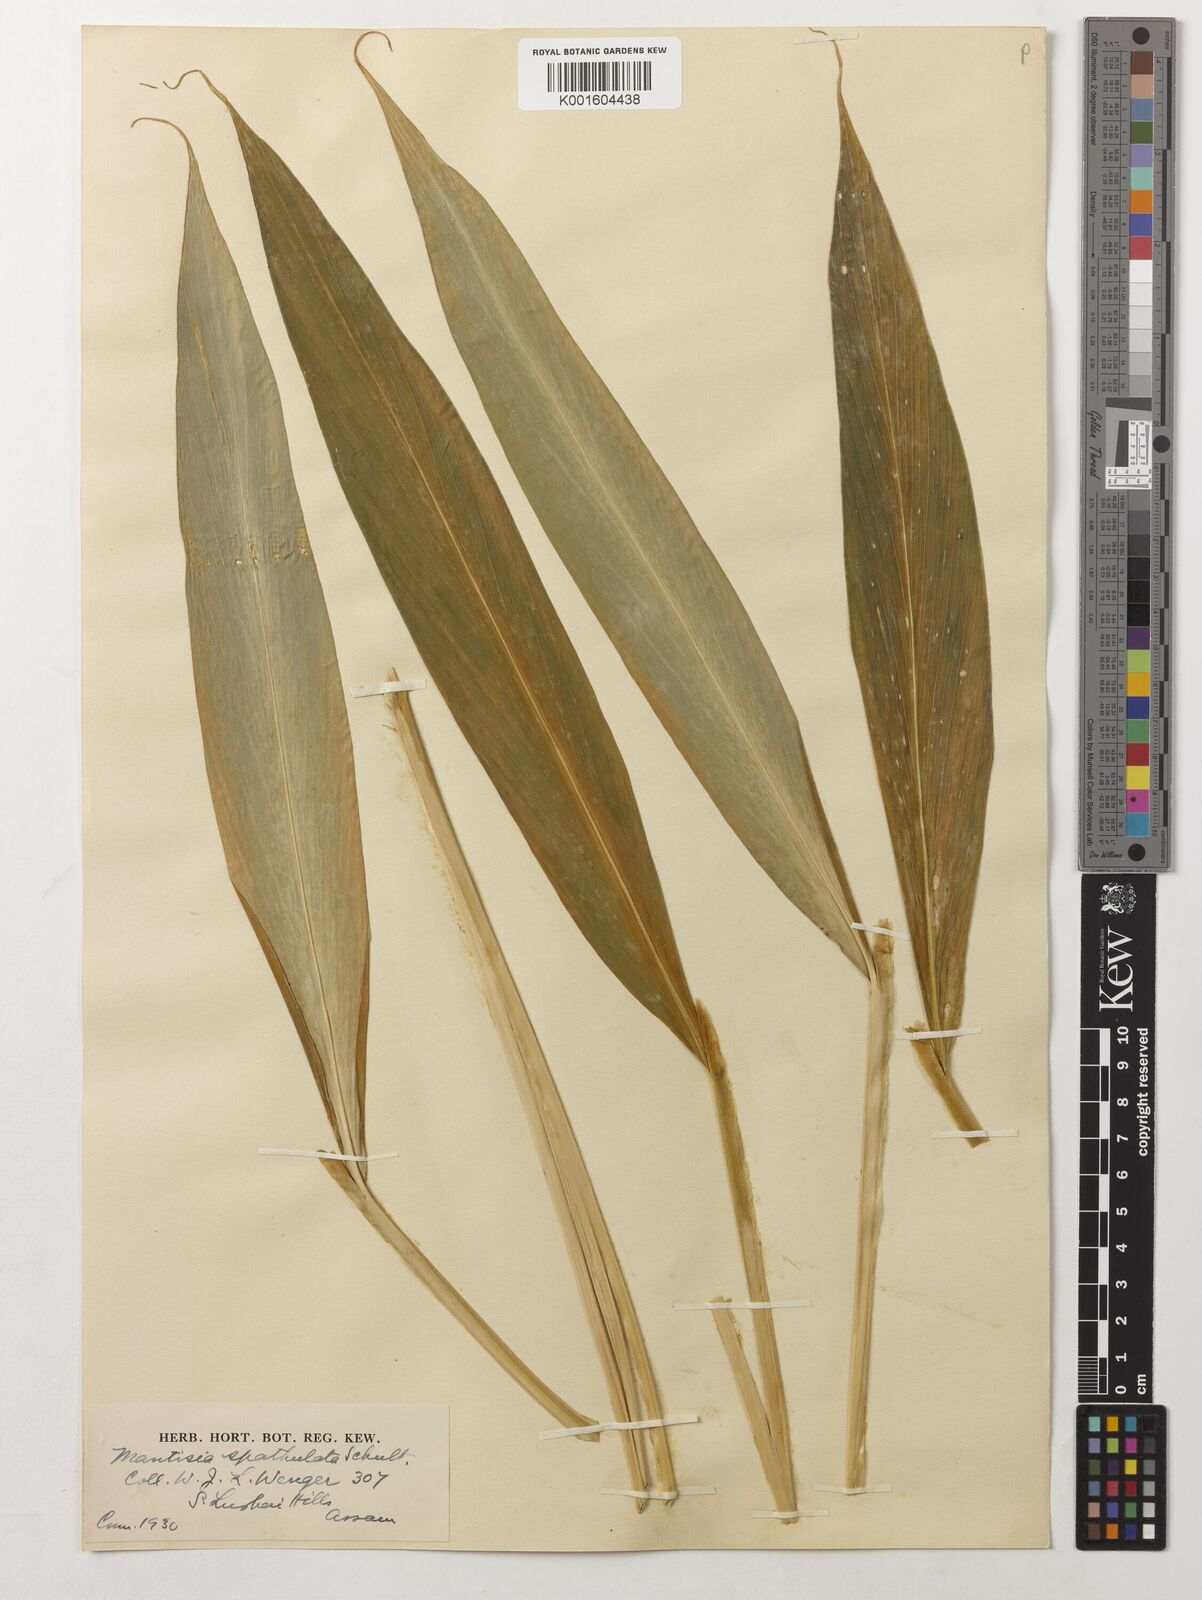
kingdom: Plantae
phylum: Tracheophyta
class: Liliopsida
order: Zingiberales
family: Zingiberaceae
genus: Globba
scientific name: Globba spathulata
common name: Dancing girl flower
